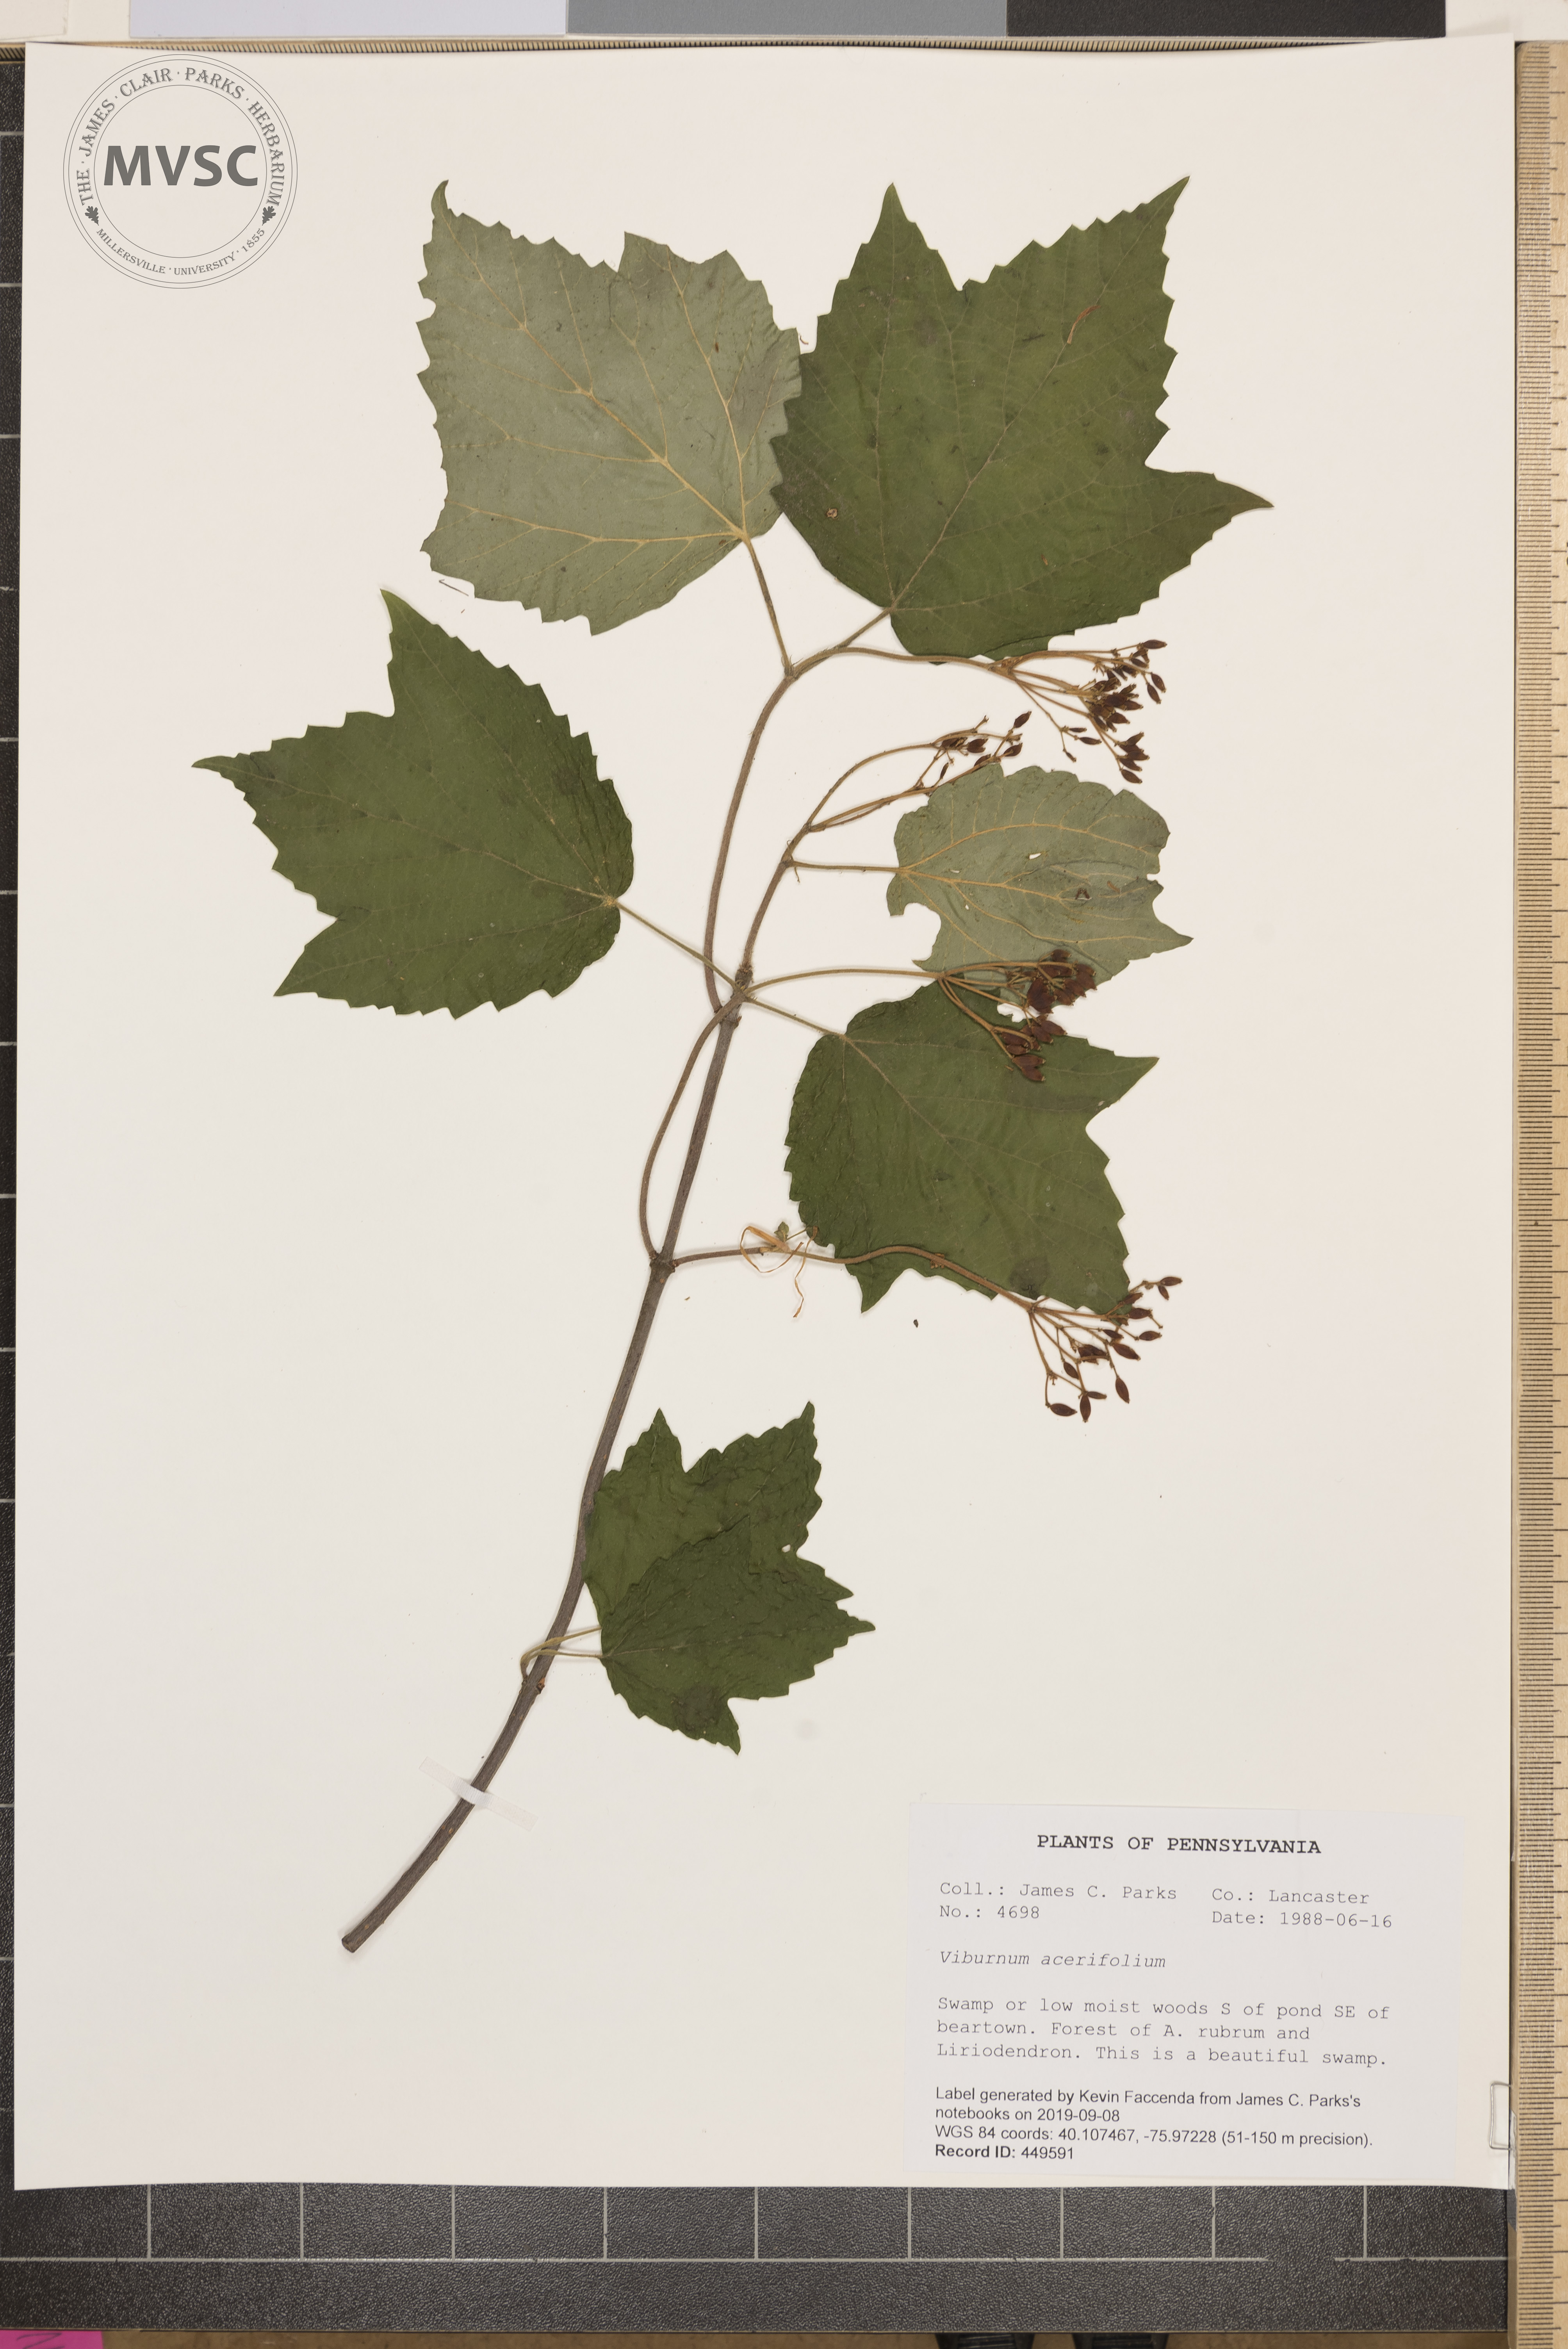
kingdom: Plantae
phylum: Tracheophyta
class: Magnoliopsida
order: Dipsacales
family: Viburnaceae
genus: Viburnum
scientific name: Viburnum acerifolium
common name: Dockmackie
